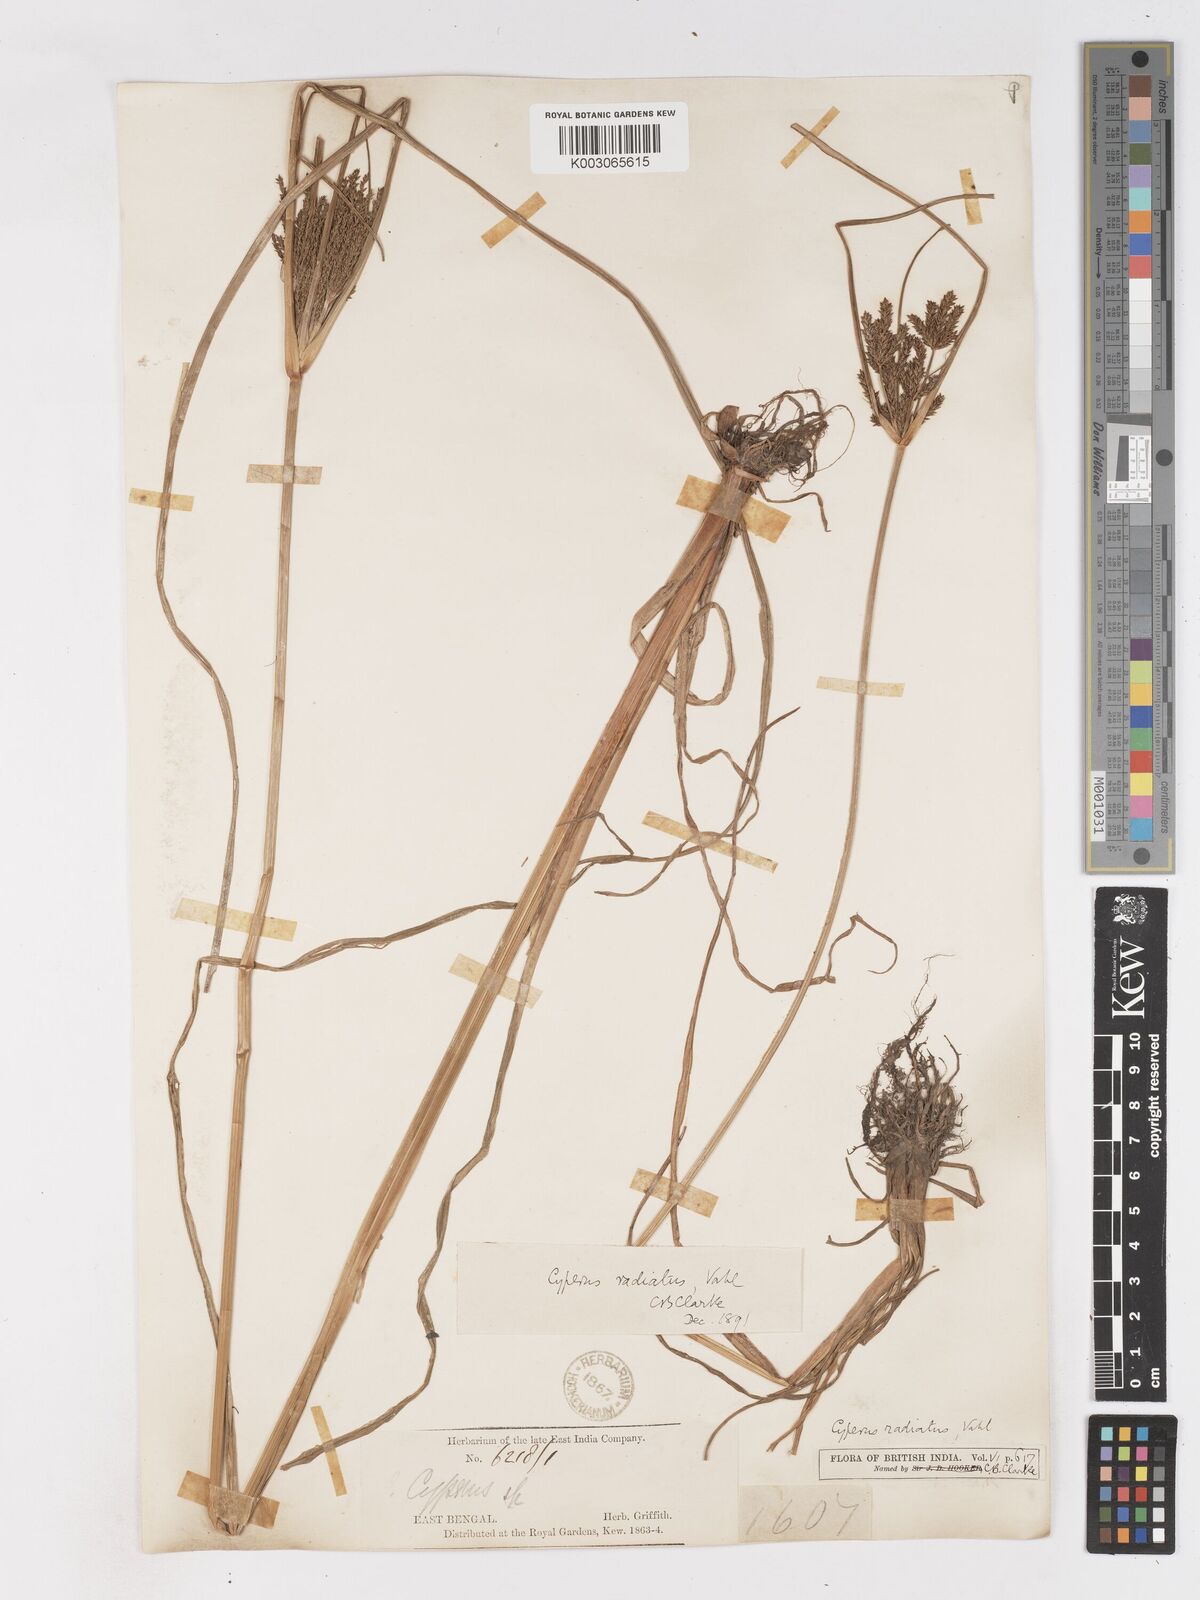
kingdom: Plantae
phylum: Tracheophyta
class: Liliopsida
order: Poales
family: Cyperaceae
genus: Cyperus
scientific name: Cyperus imbricatus
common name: Shingle flatsedge
